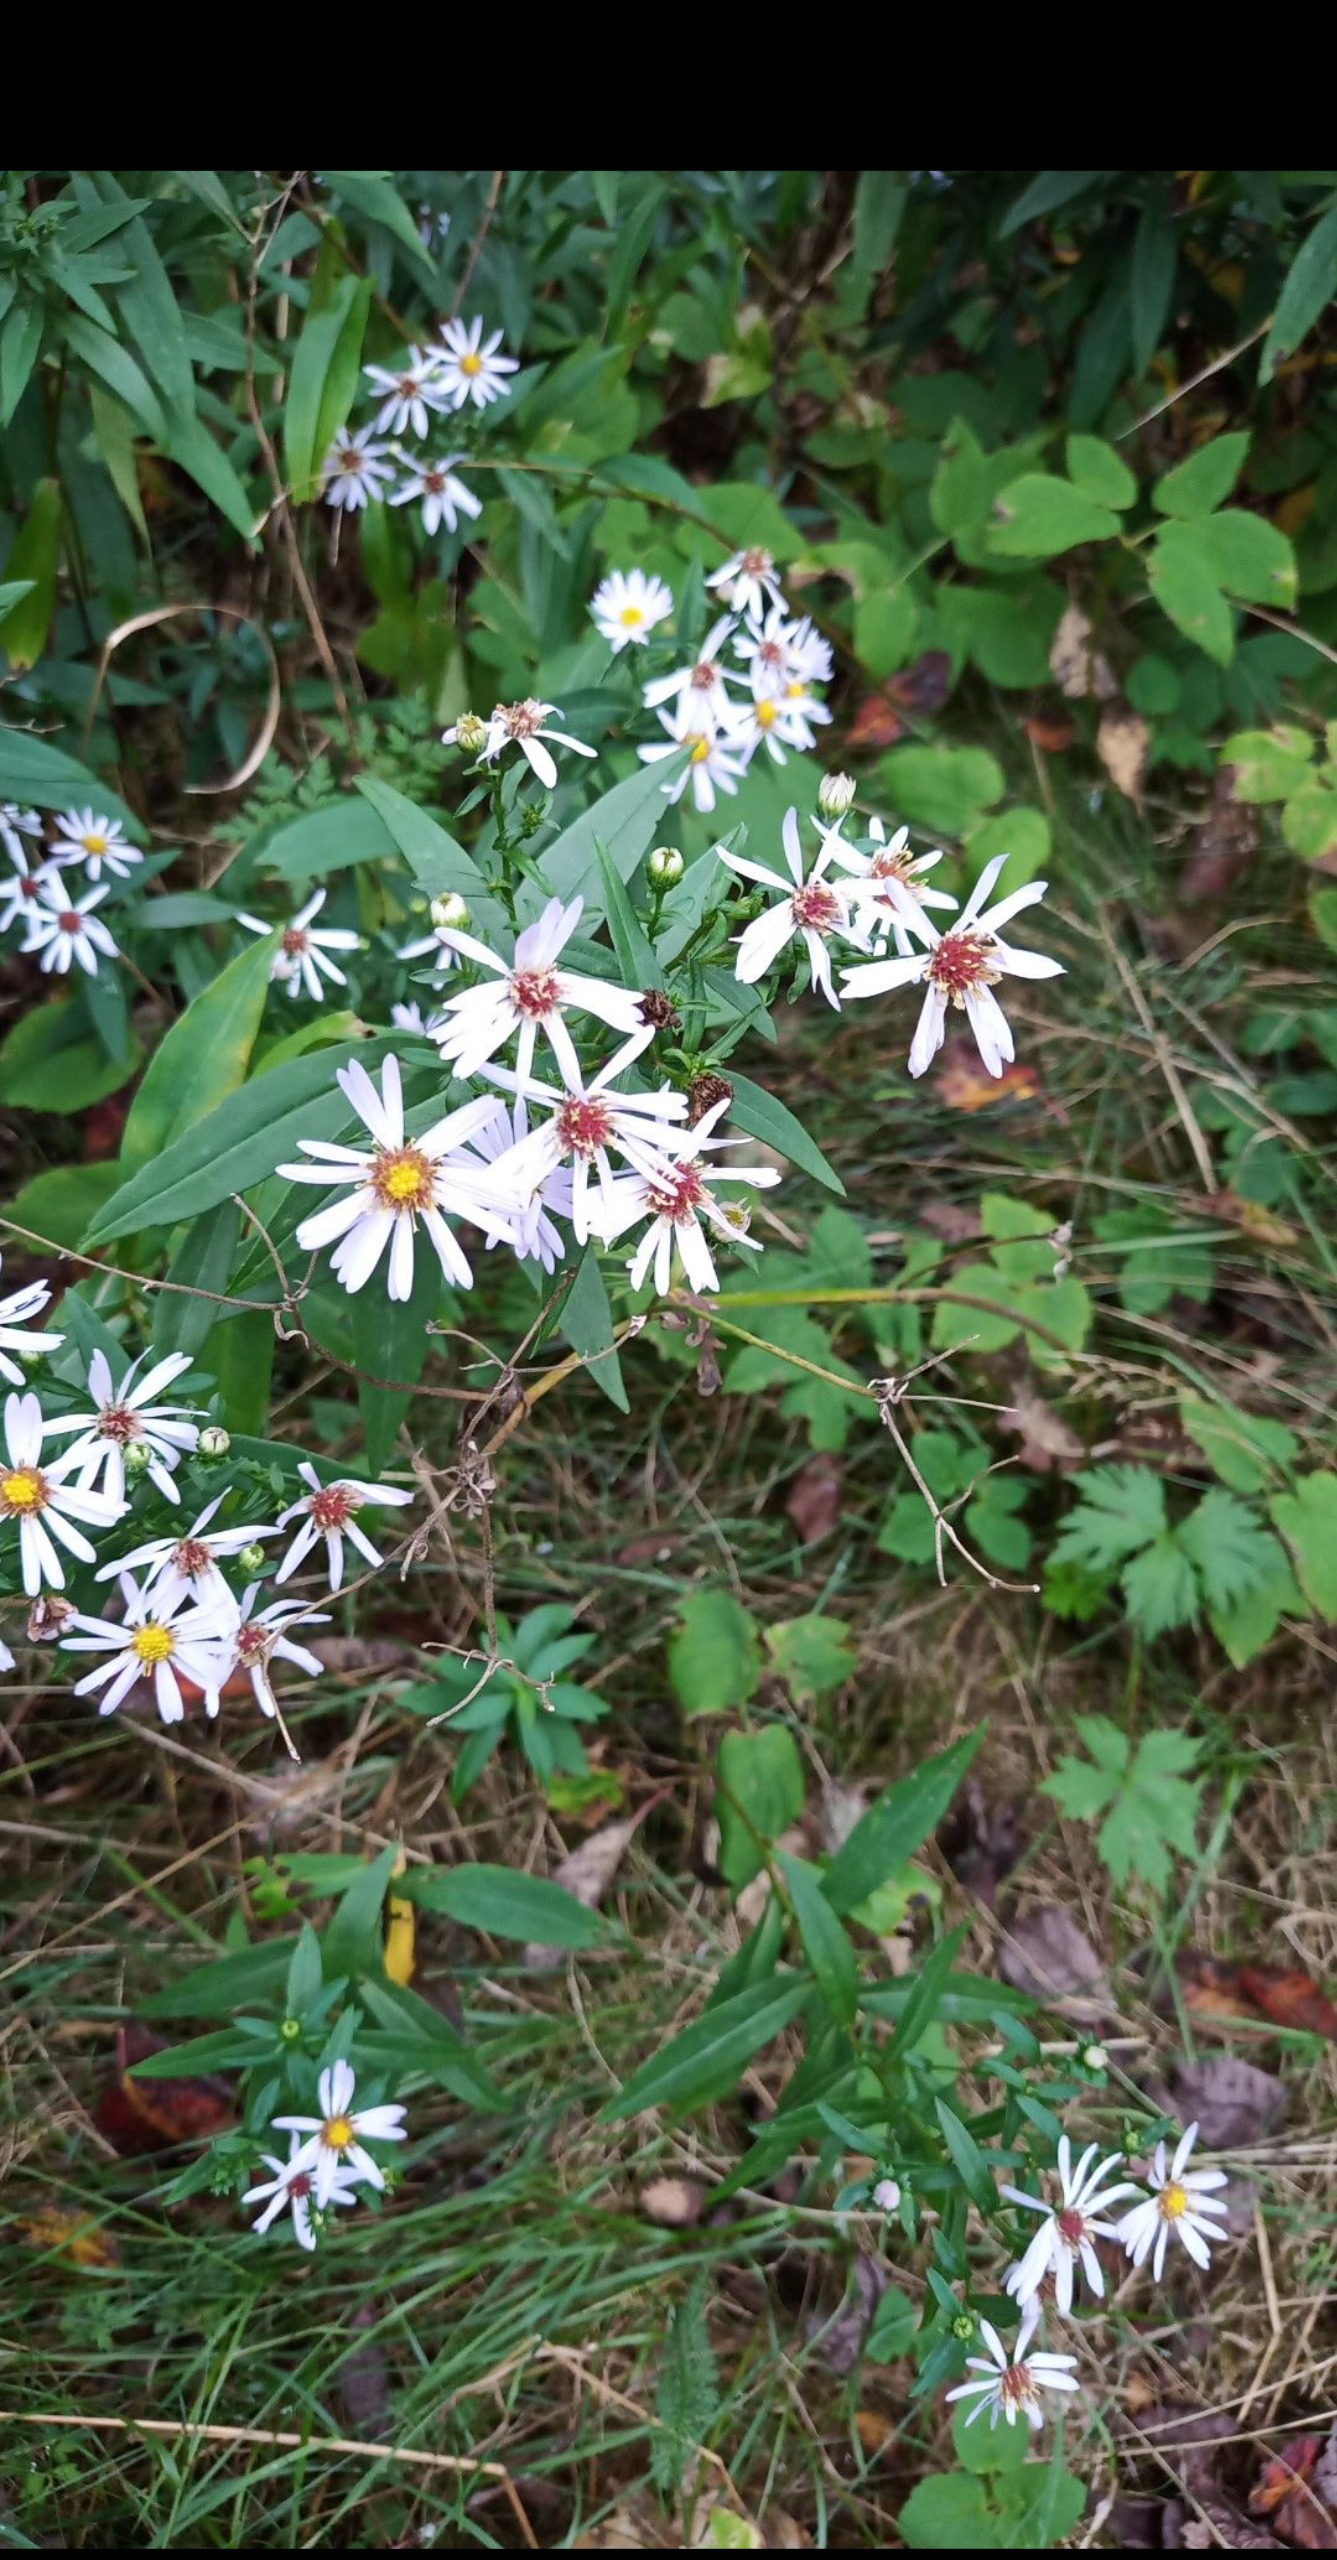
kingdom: Plantae
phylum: Tracheophyta
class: Magnoliopsida
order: Asterales
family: Asteraceae
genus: Symphyotrichum
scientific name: Symphyotrichum novi-belgii
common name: Nybelgisk asters
